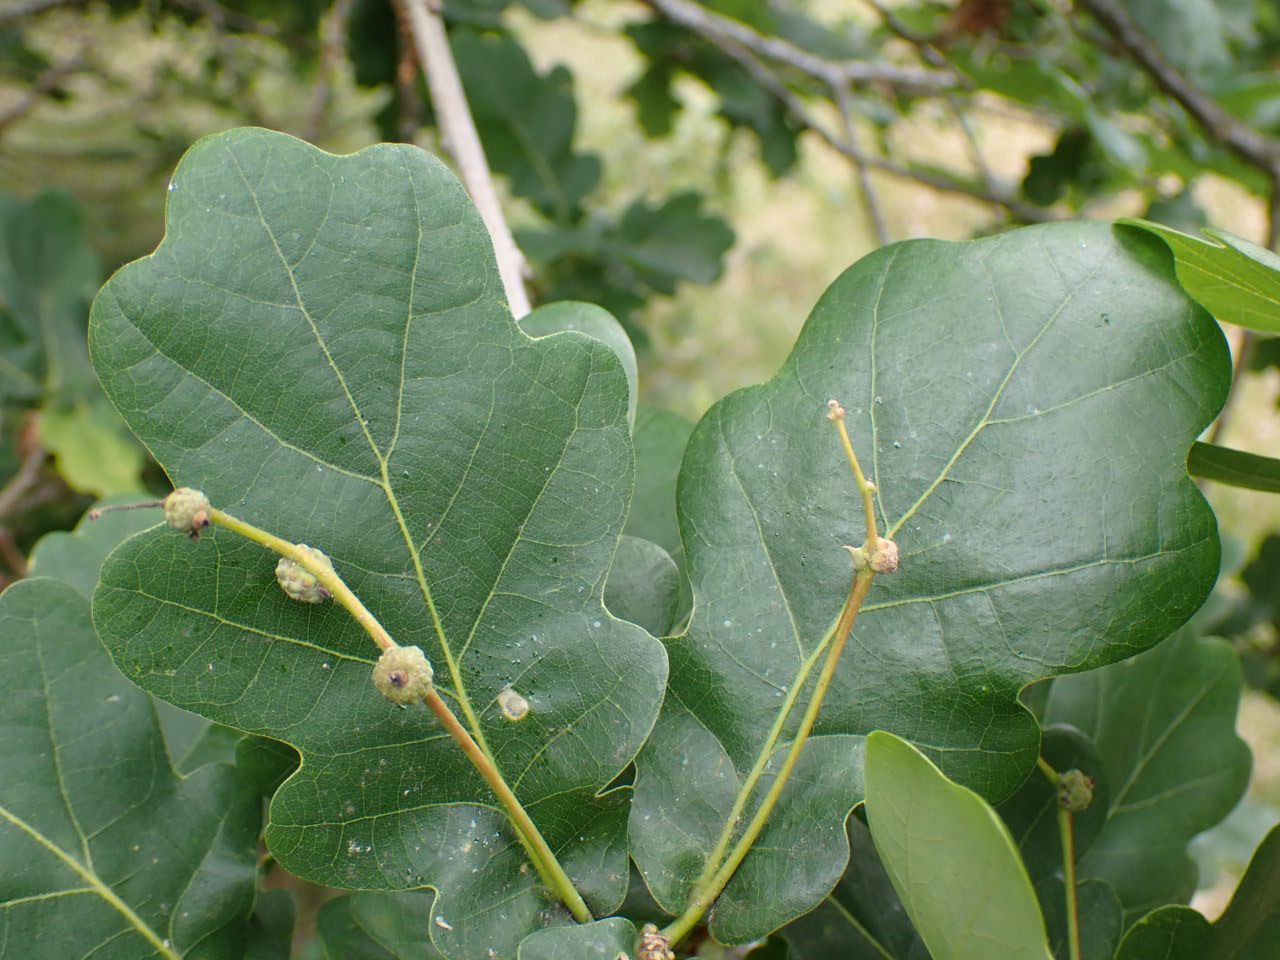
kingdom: Plantae
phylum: Tracheophyta
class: Magnoliopsida
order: Fagales
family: Fagaceae
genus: Quercus
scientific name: Quercus robur
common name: Stilk-eg/almindelig eg
